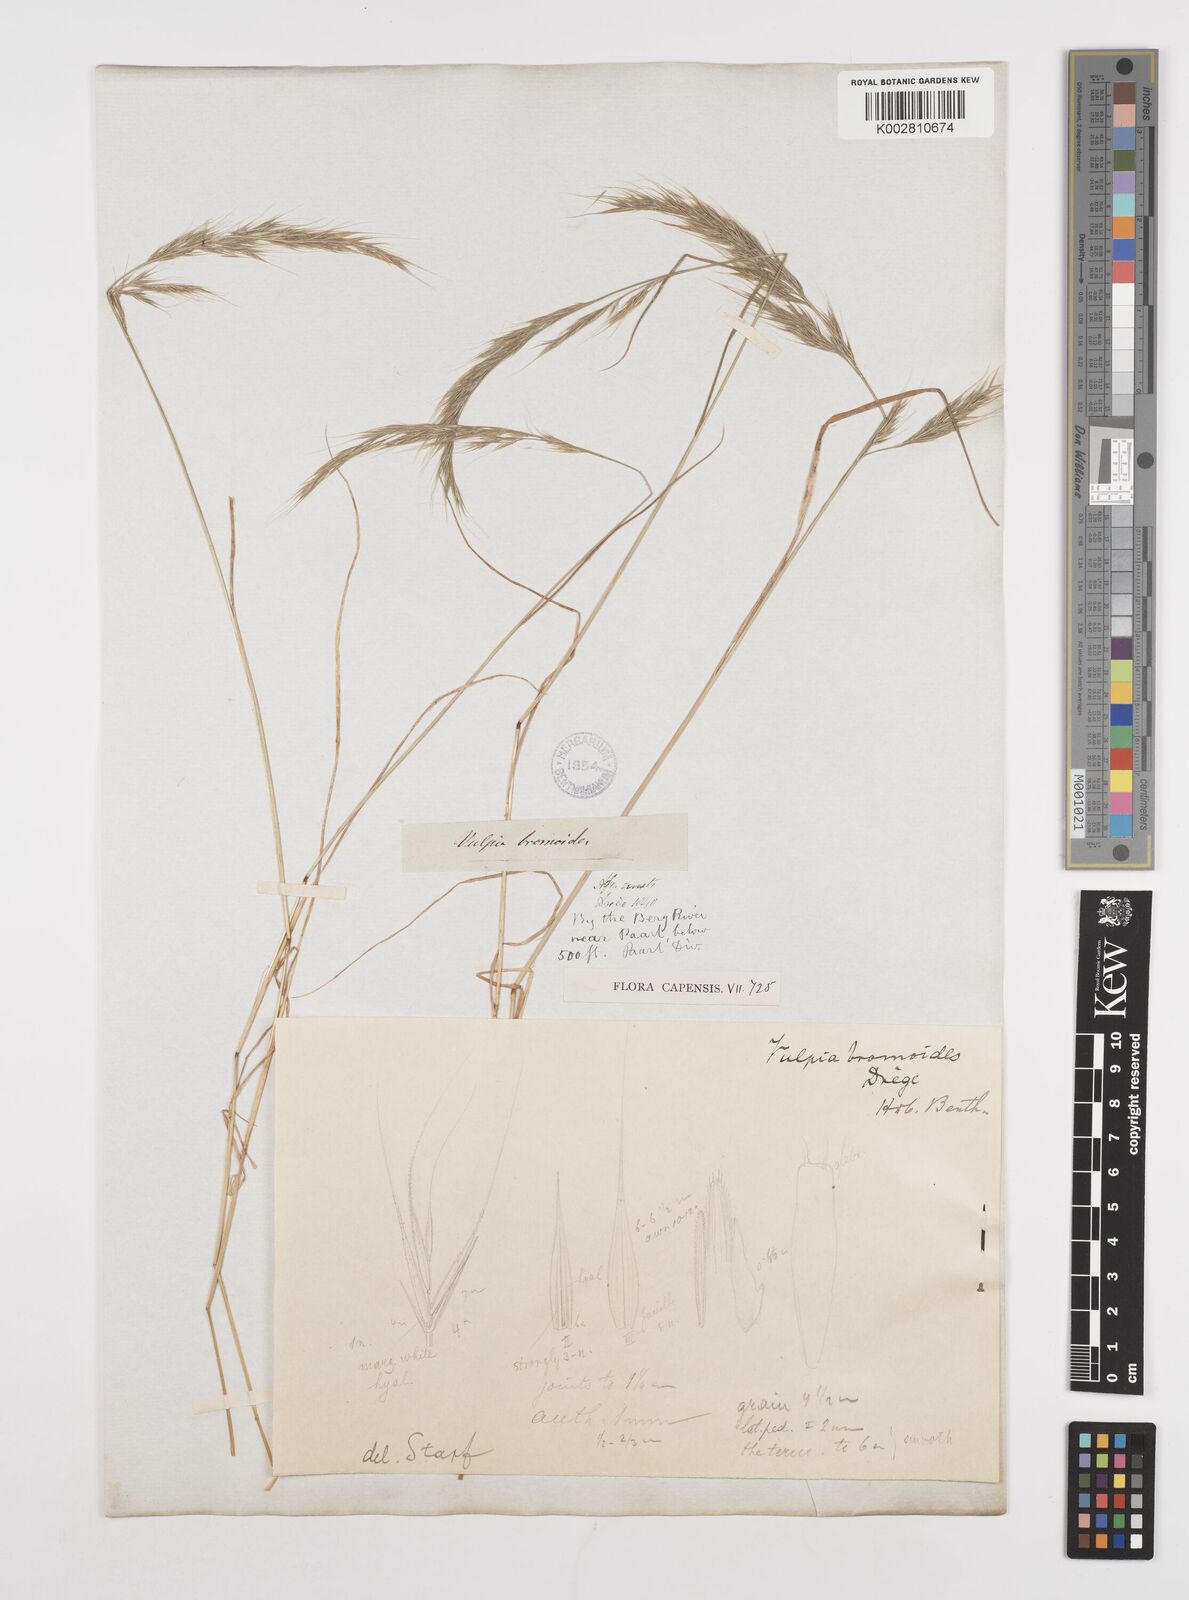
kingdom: Plantae
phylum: Tracheophyta
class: Liliopsida
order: Poales
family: Poaceae
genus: Festuca
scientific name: Festuca bromoides
